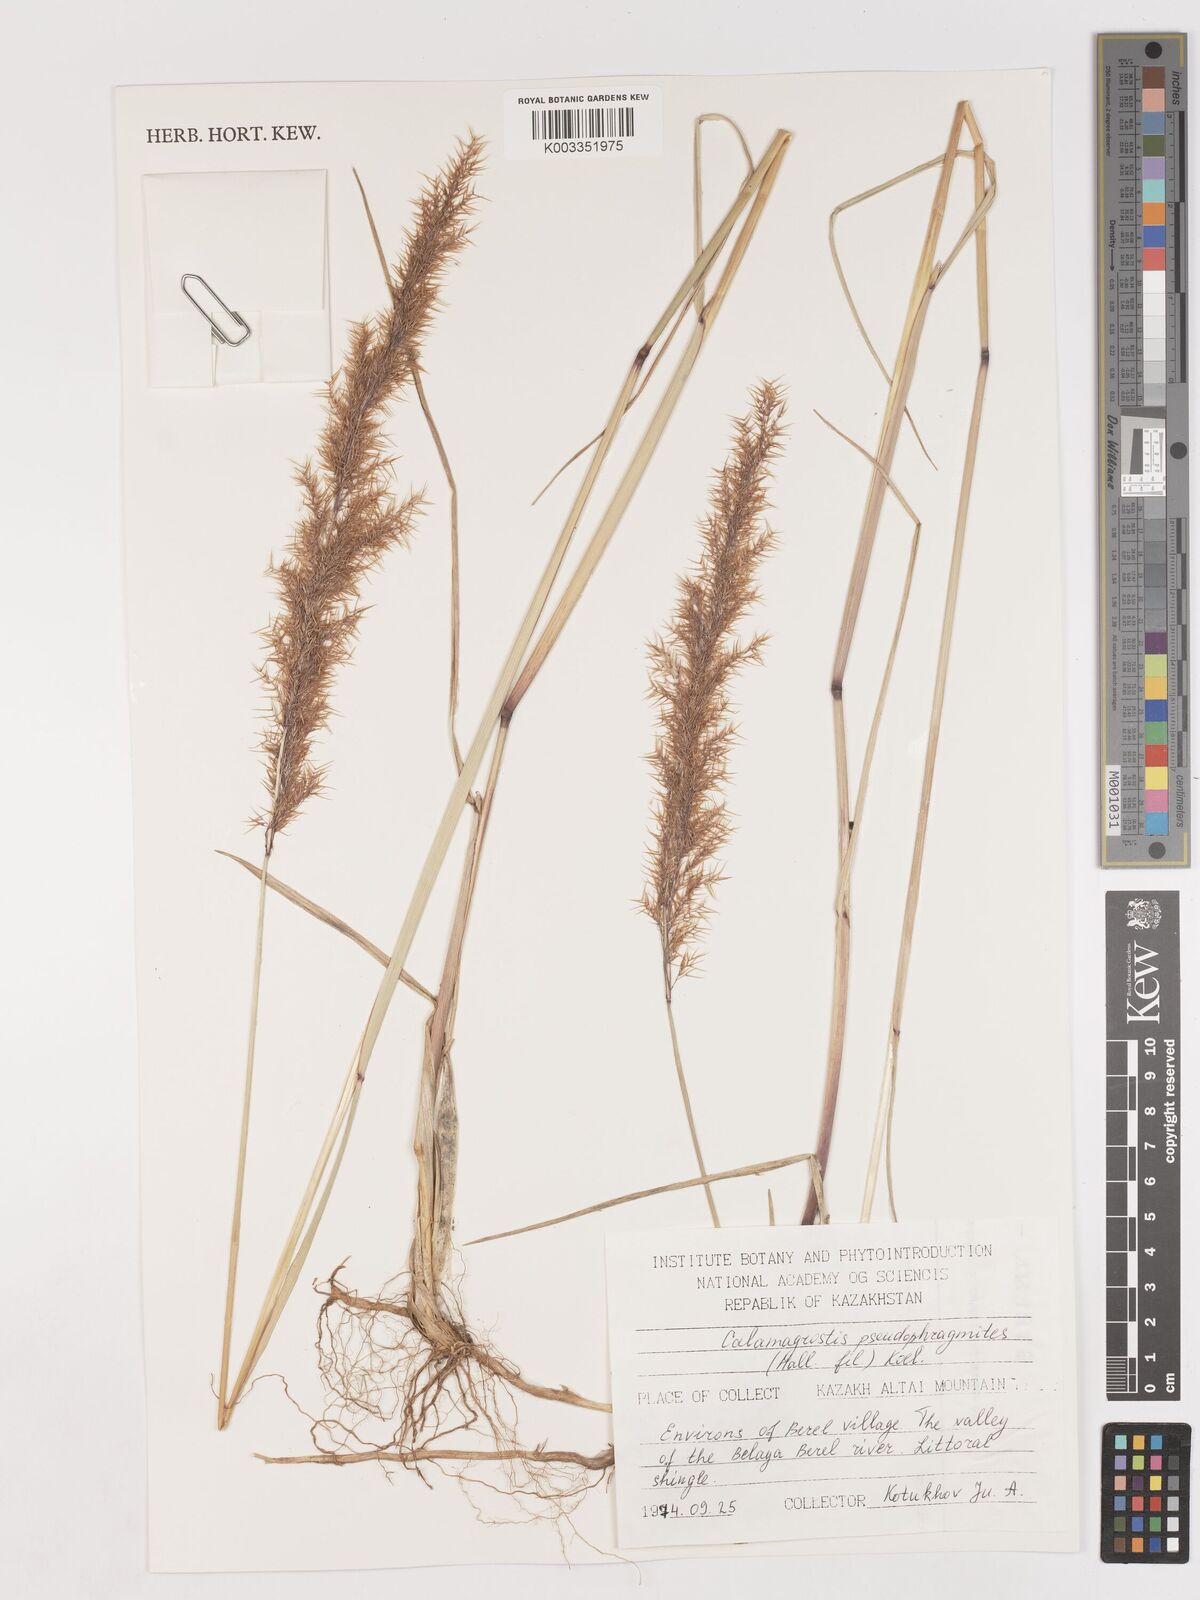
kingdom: Plantae
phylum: Tracheophyta
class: Liliopsida
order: Poales
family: Poaceae
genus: Calamagrostis
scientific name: Calamagrostis pseudophragmites
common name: Coastal small-reed
